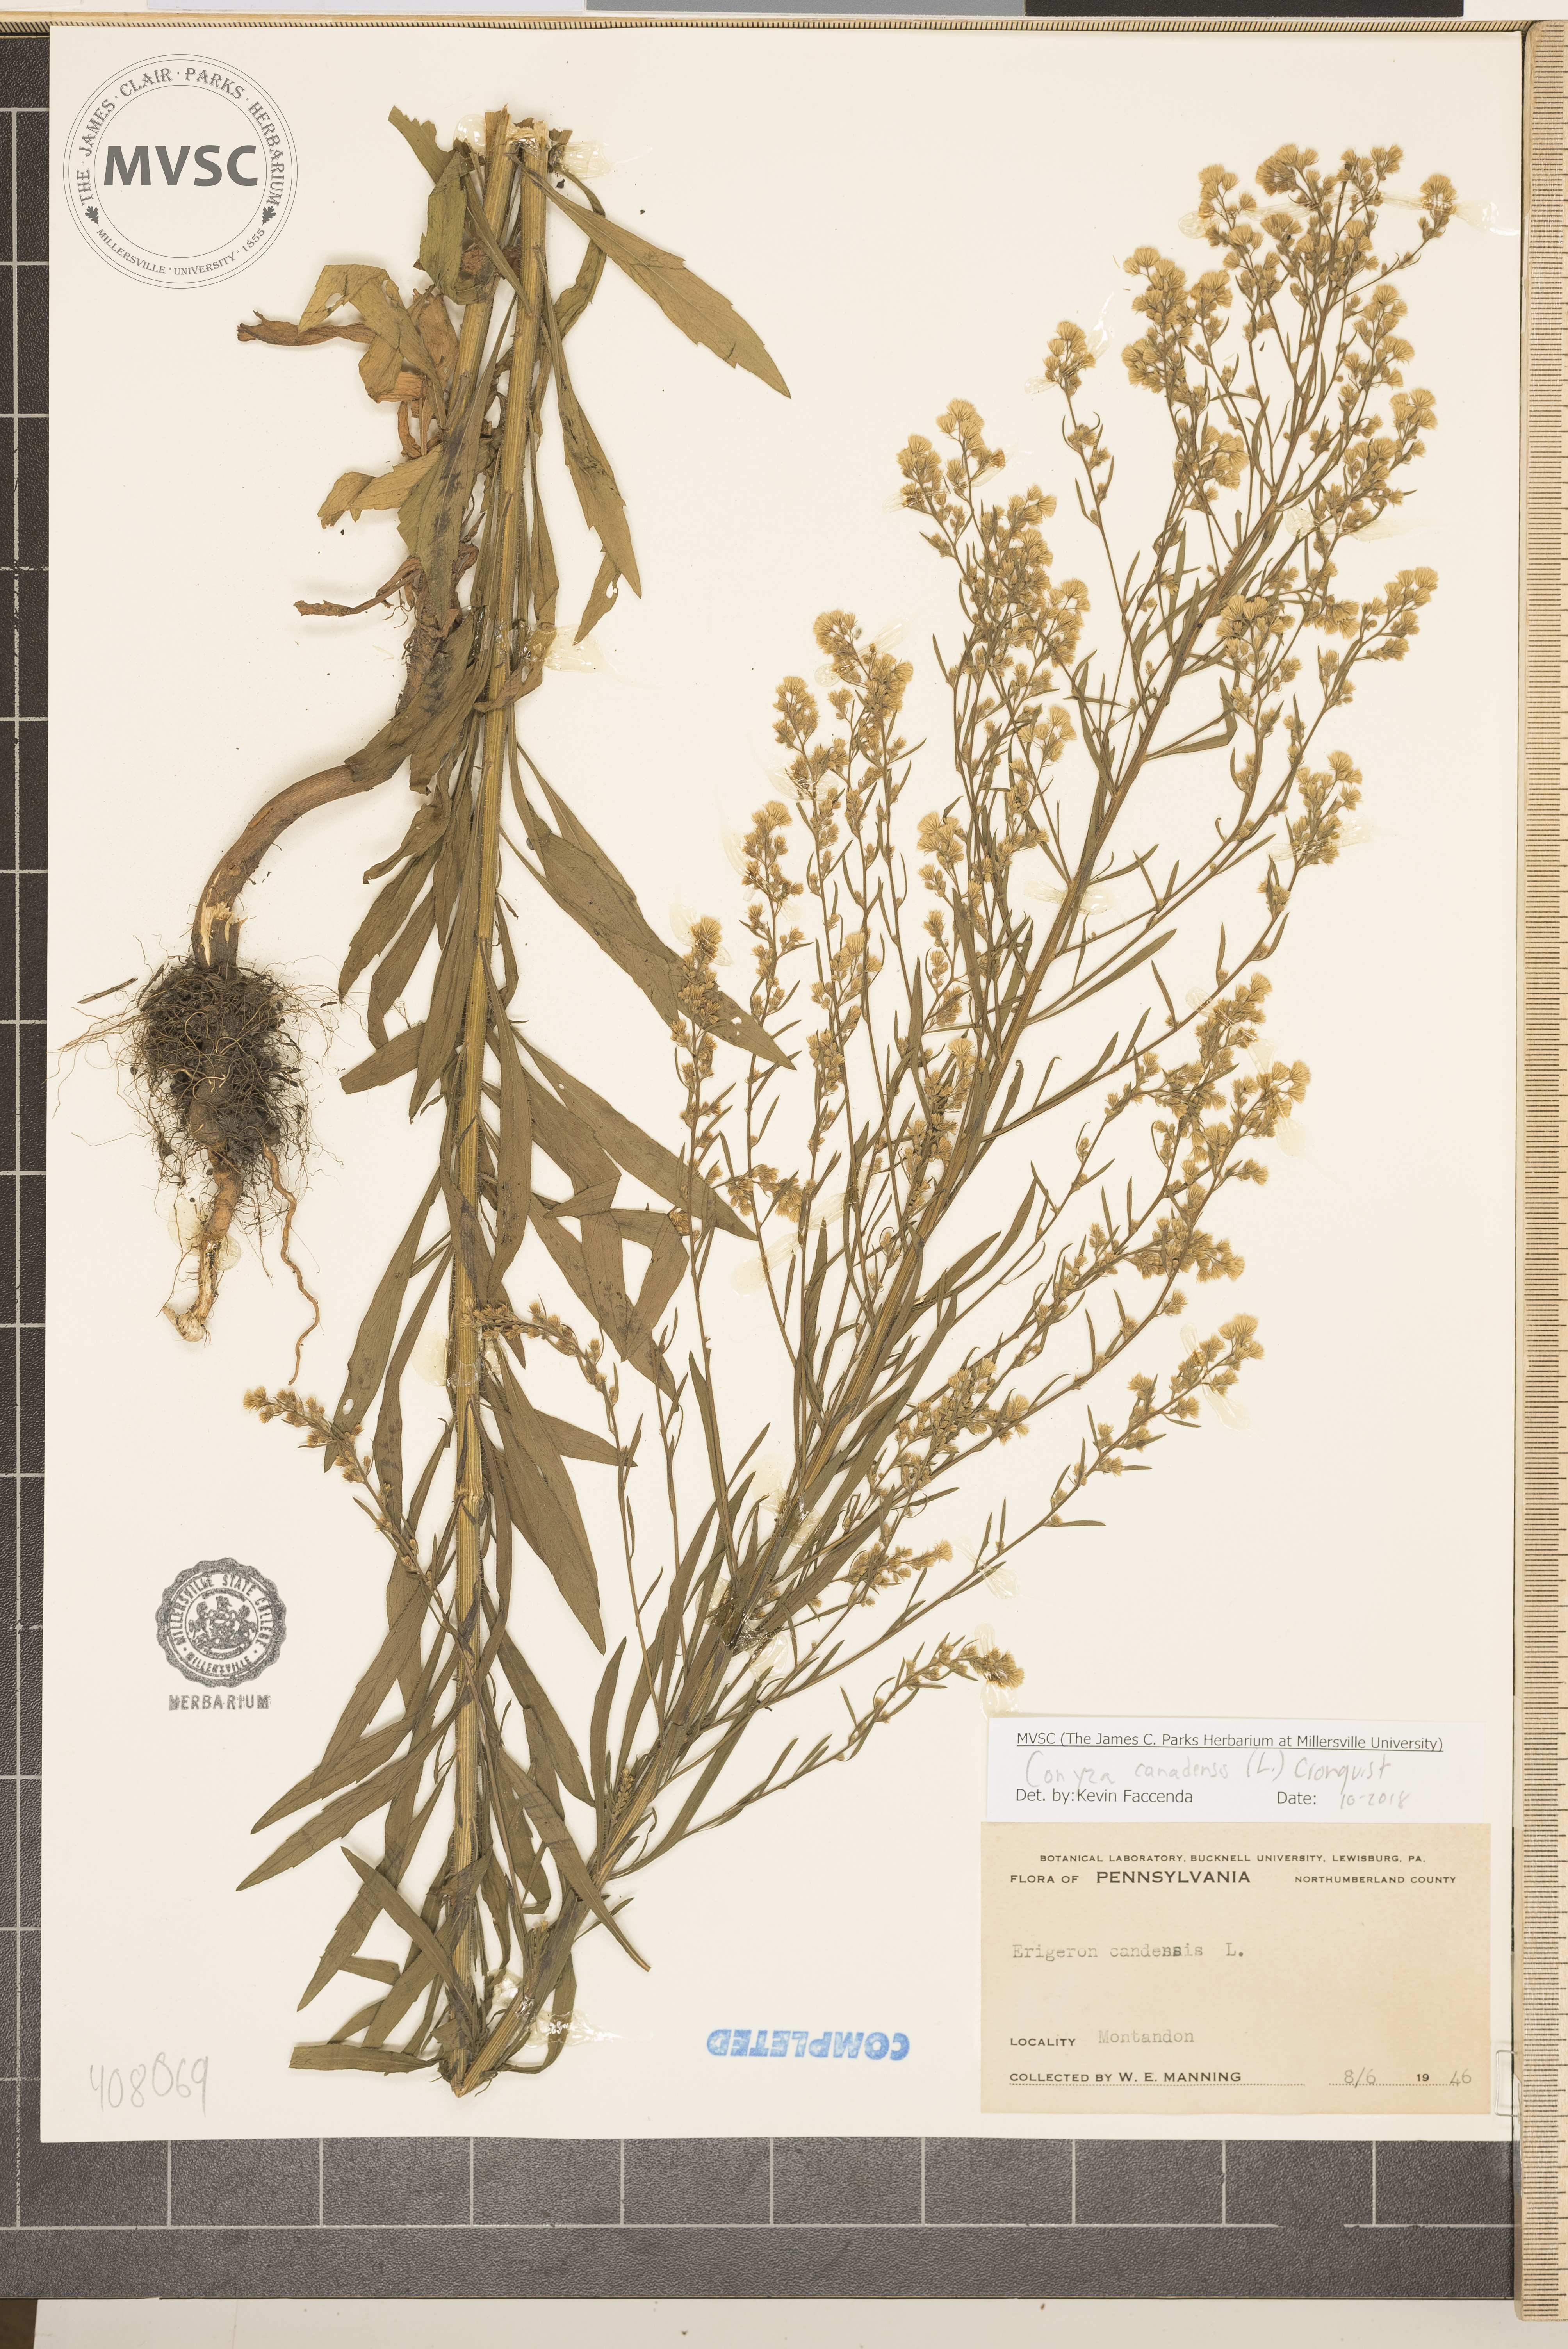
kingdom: Plantae
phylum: Tracheophyta
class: Magnoliopsida
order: Asterales
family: Asteraceae
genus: Erigeron
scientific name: Erigeron canadensis
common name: Canadian fleabane
